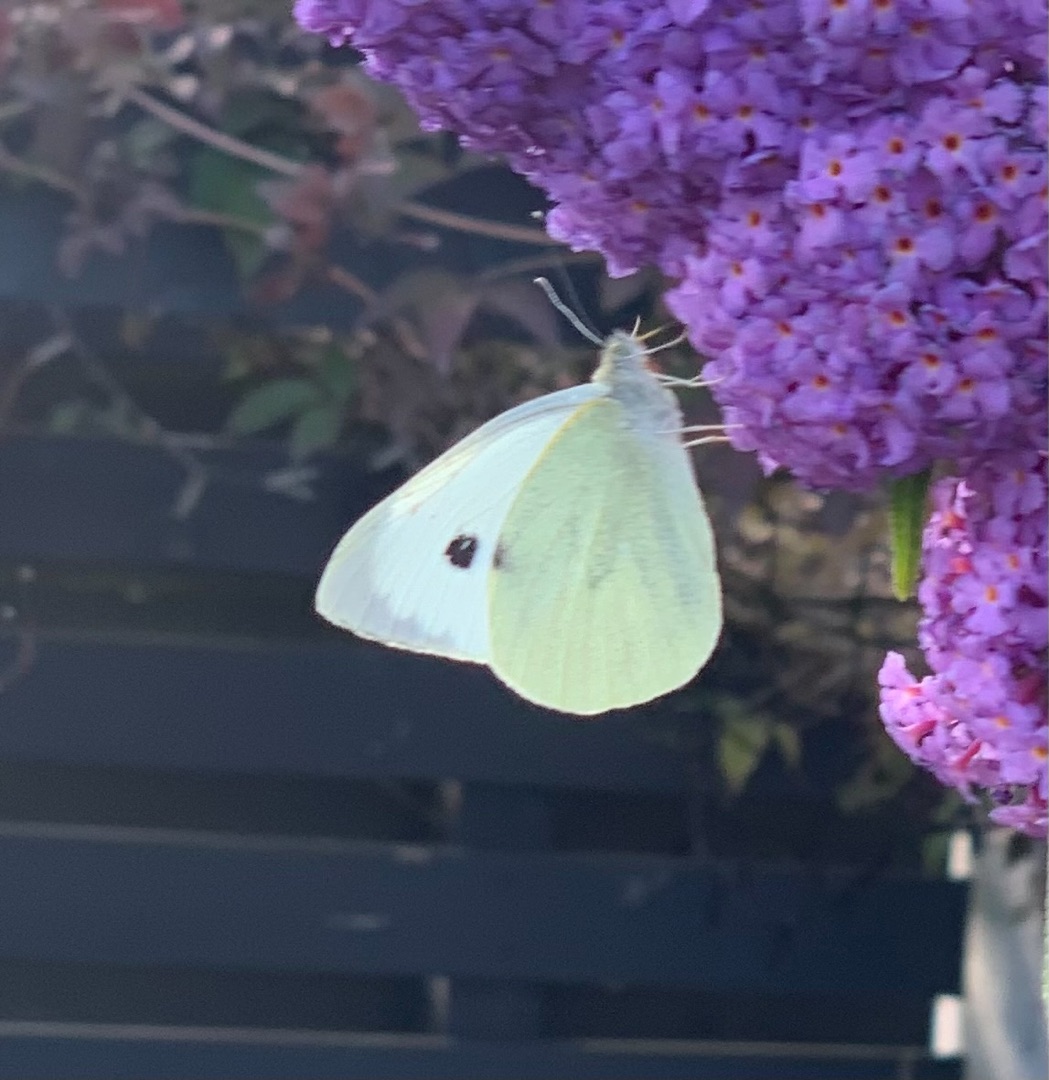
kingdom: Animalia
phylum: Arthropoda
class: Insecta
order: Lepidoptera
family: Pieridae
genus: Pieris
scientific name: Pieris brassicae
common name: Stor kålsommerfugl
